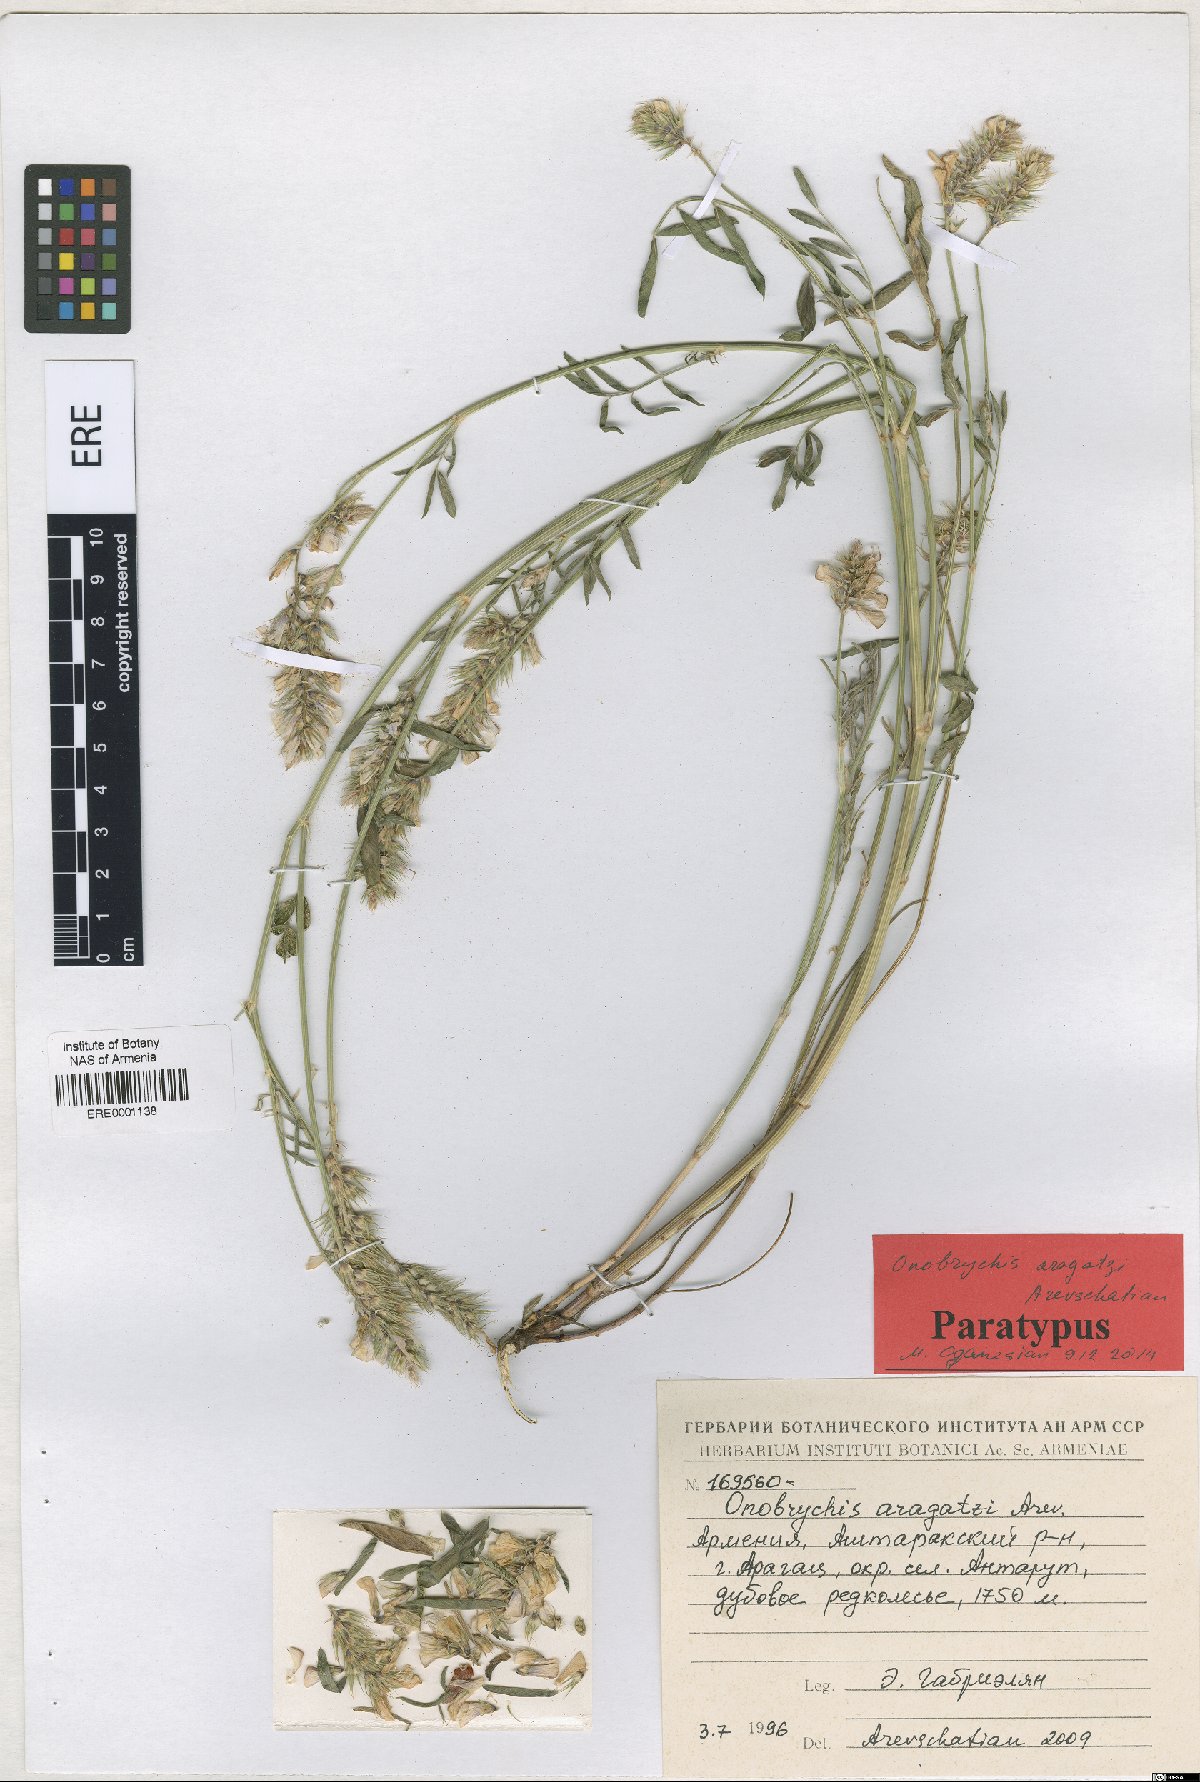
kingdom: Plantae
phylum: Tracheophyta
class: Magnoliopsida
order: Fabales
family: Fabaceae
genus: Onobrychis
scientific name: Onobrychis aragatzi
